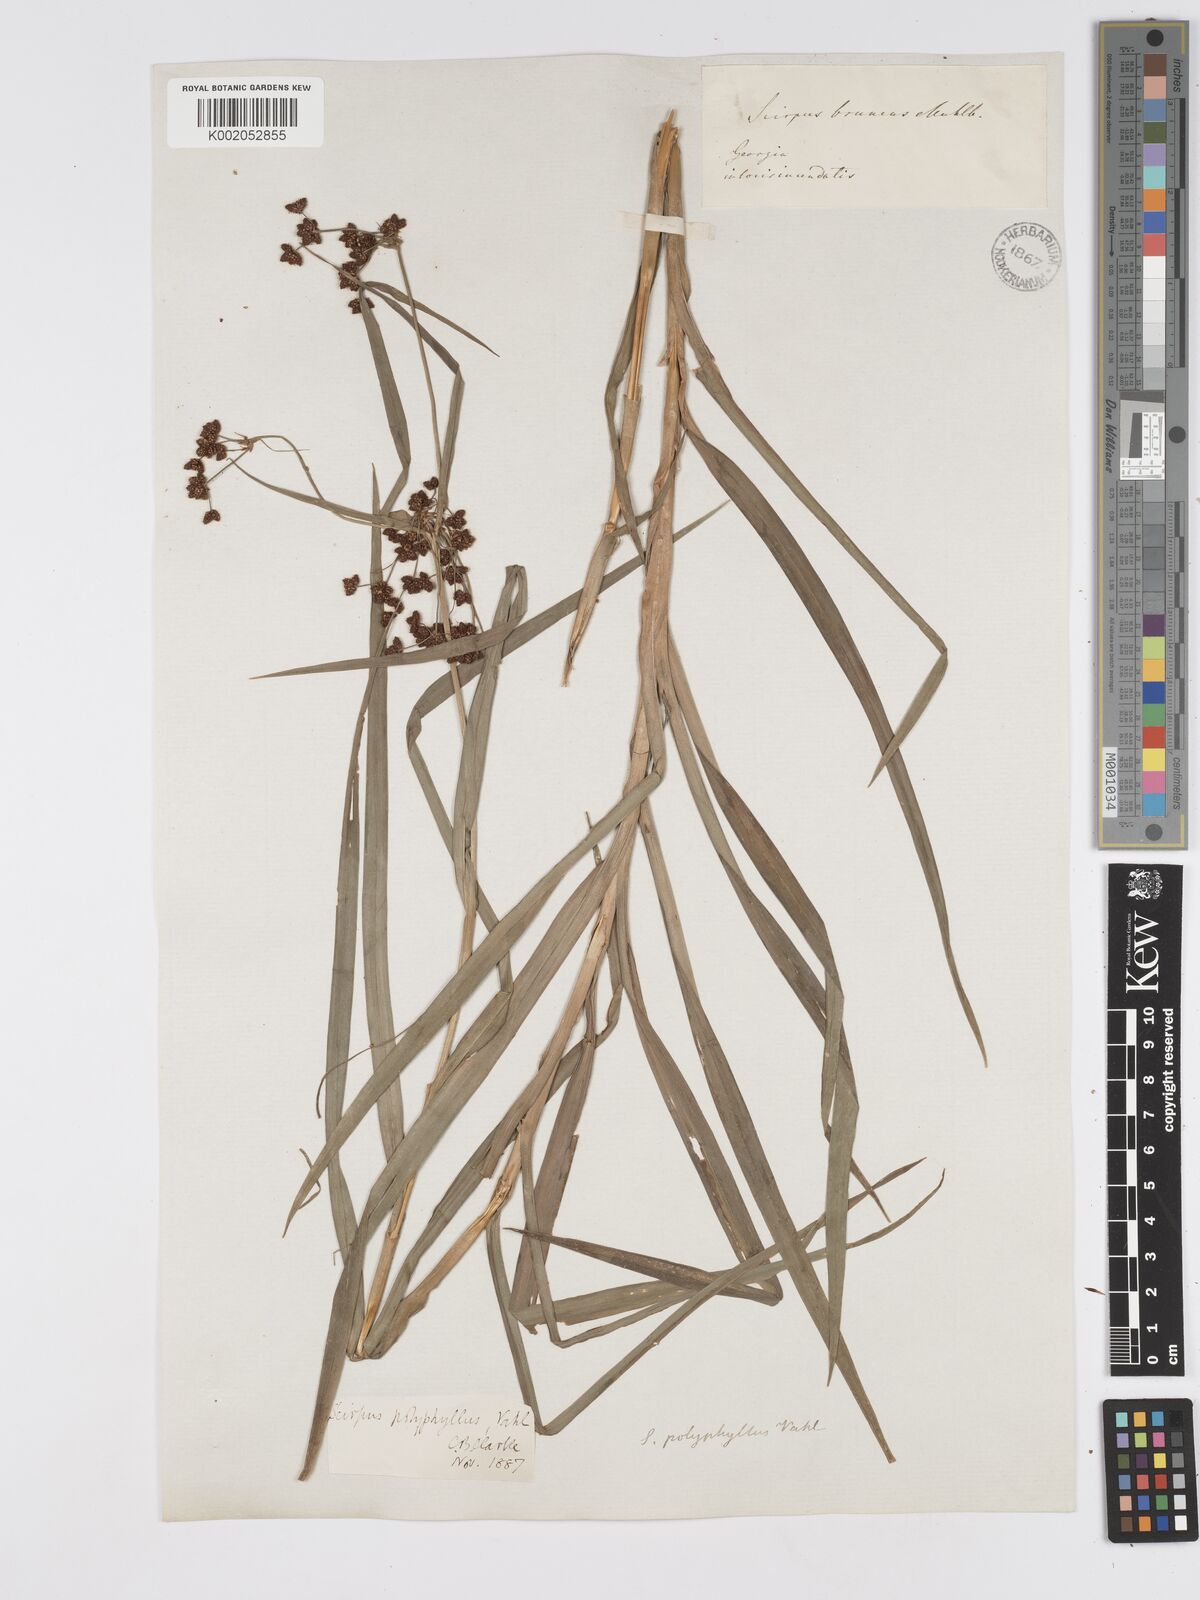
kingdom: Plantae
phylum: Tracheophyta
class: Liliopsida
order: Poales
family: Cyperaceae
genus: Scirpus
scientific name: Scirpus polyphyllus
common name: Leafy bulrush
